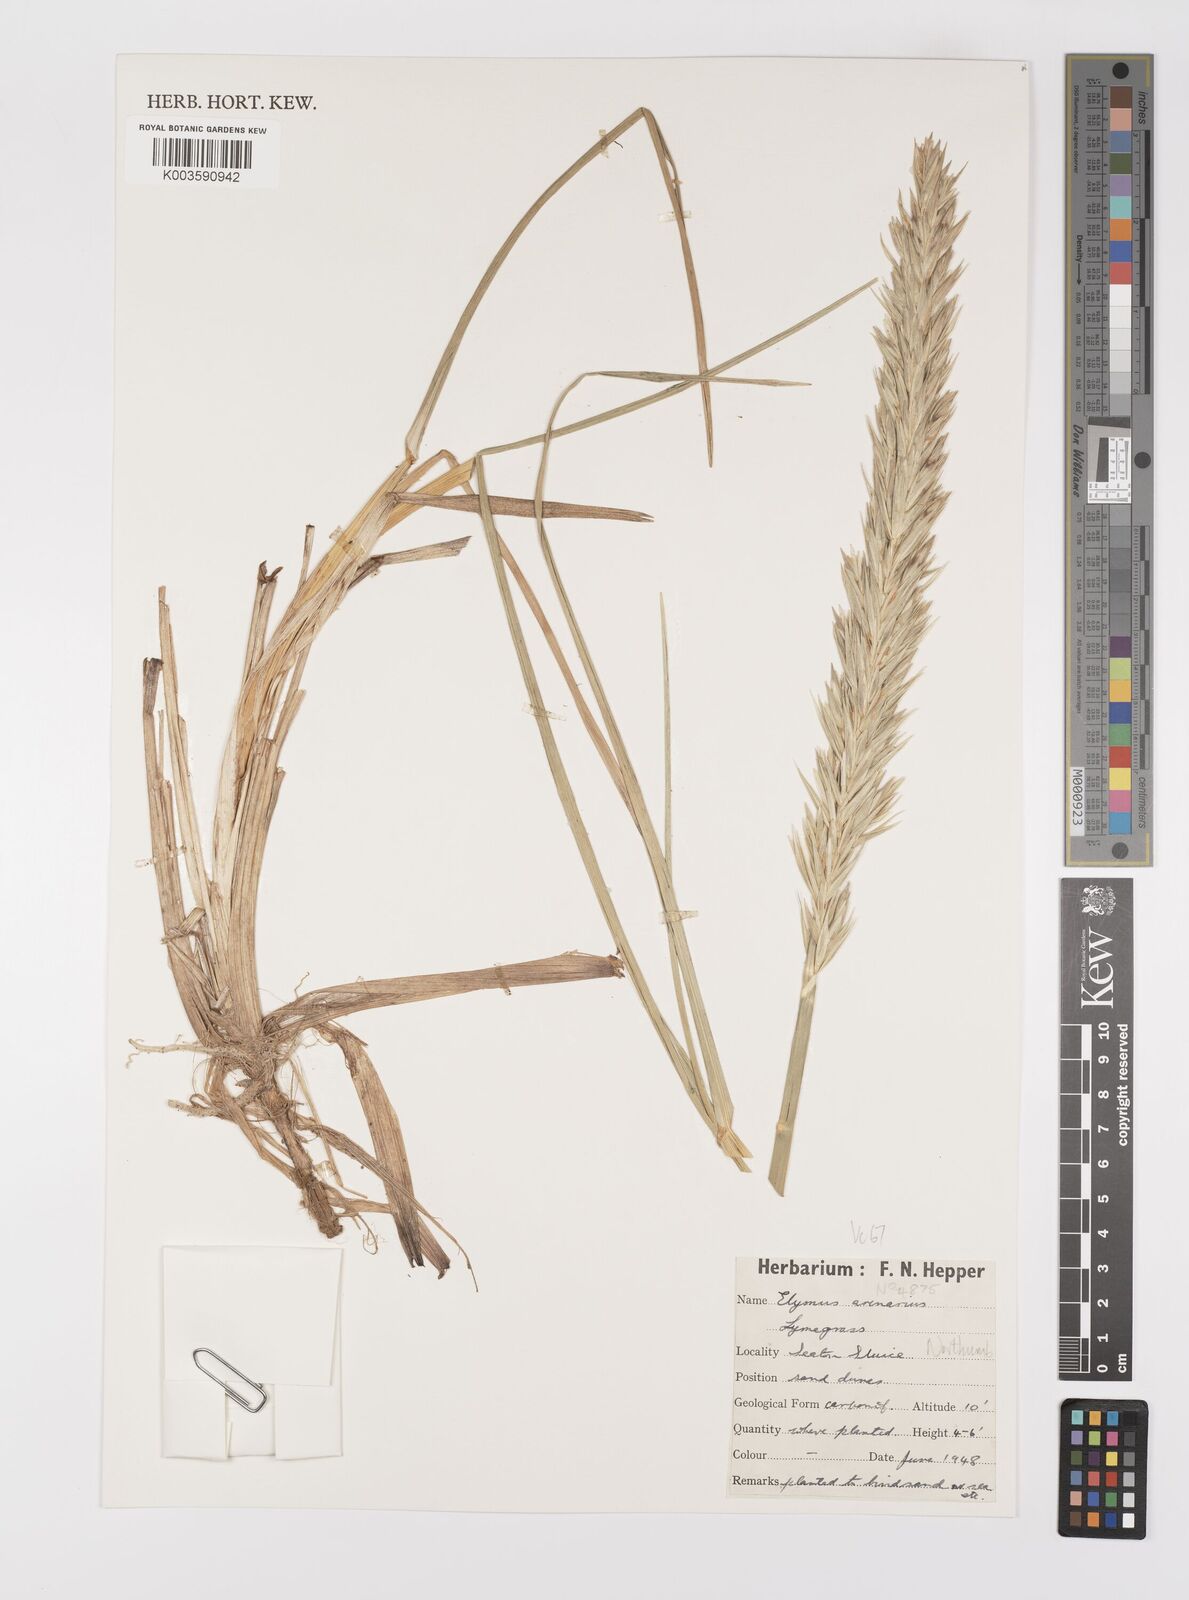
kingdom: Plantae
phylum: Tracheophyta
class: Liliopsida
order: Poales
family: Poaceae
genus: Leymus
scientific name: Leymus arenarius
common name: Lyme-grass
